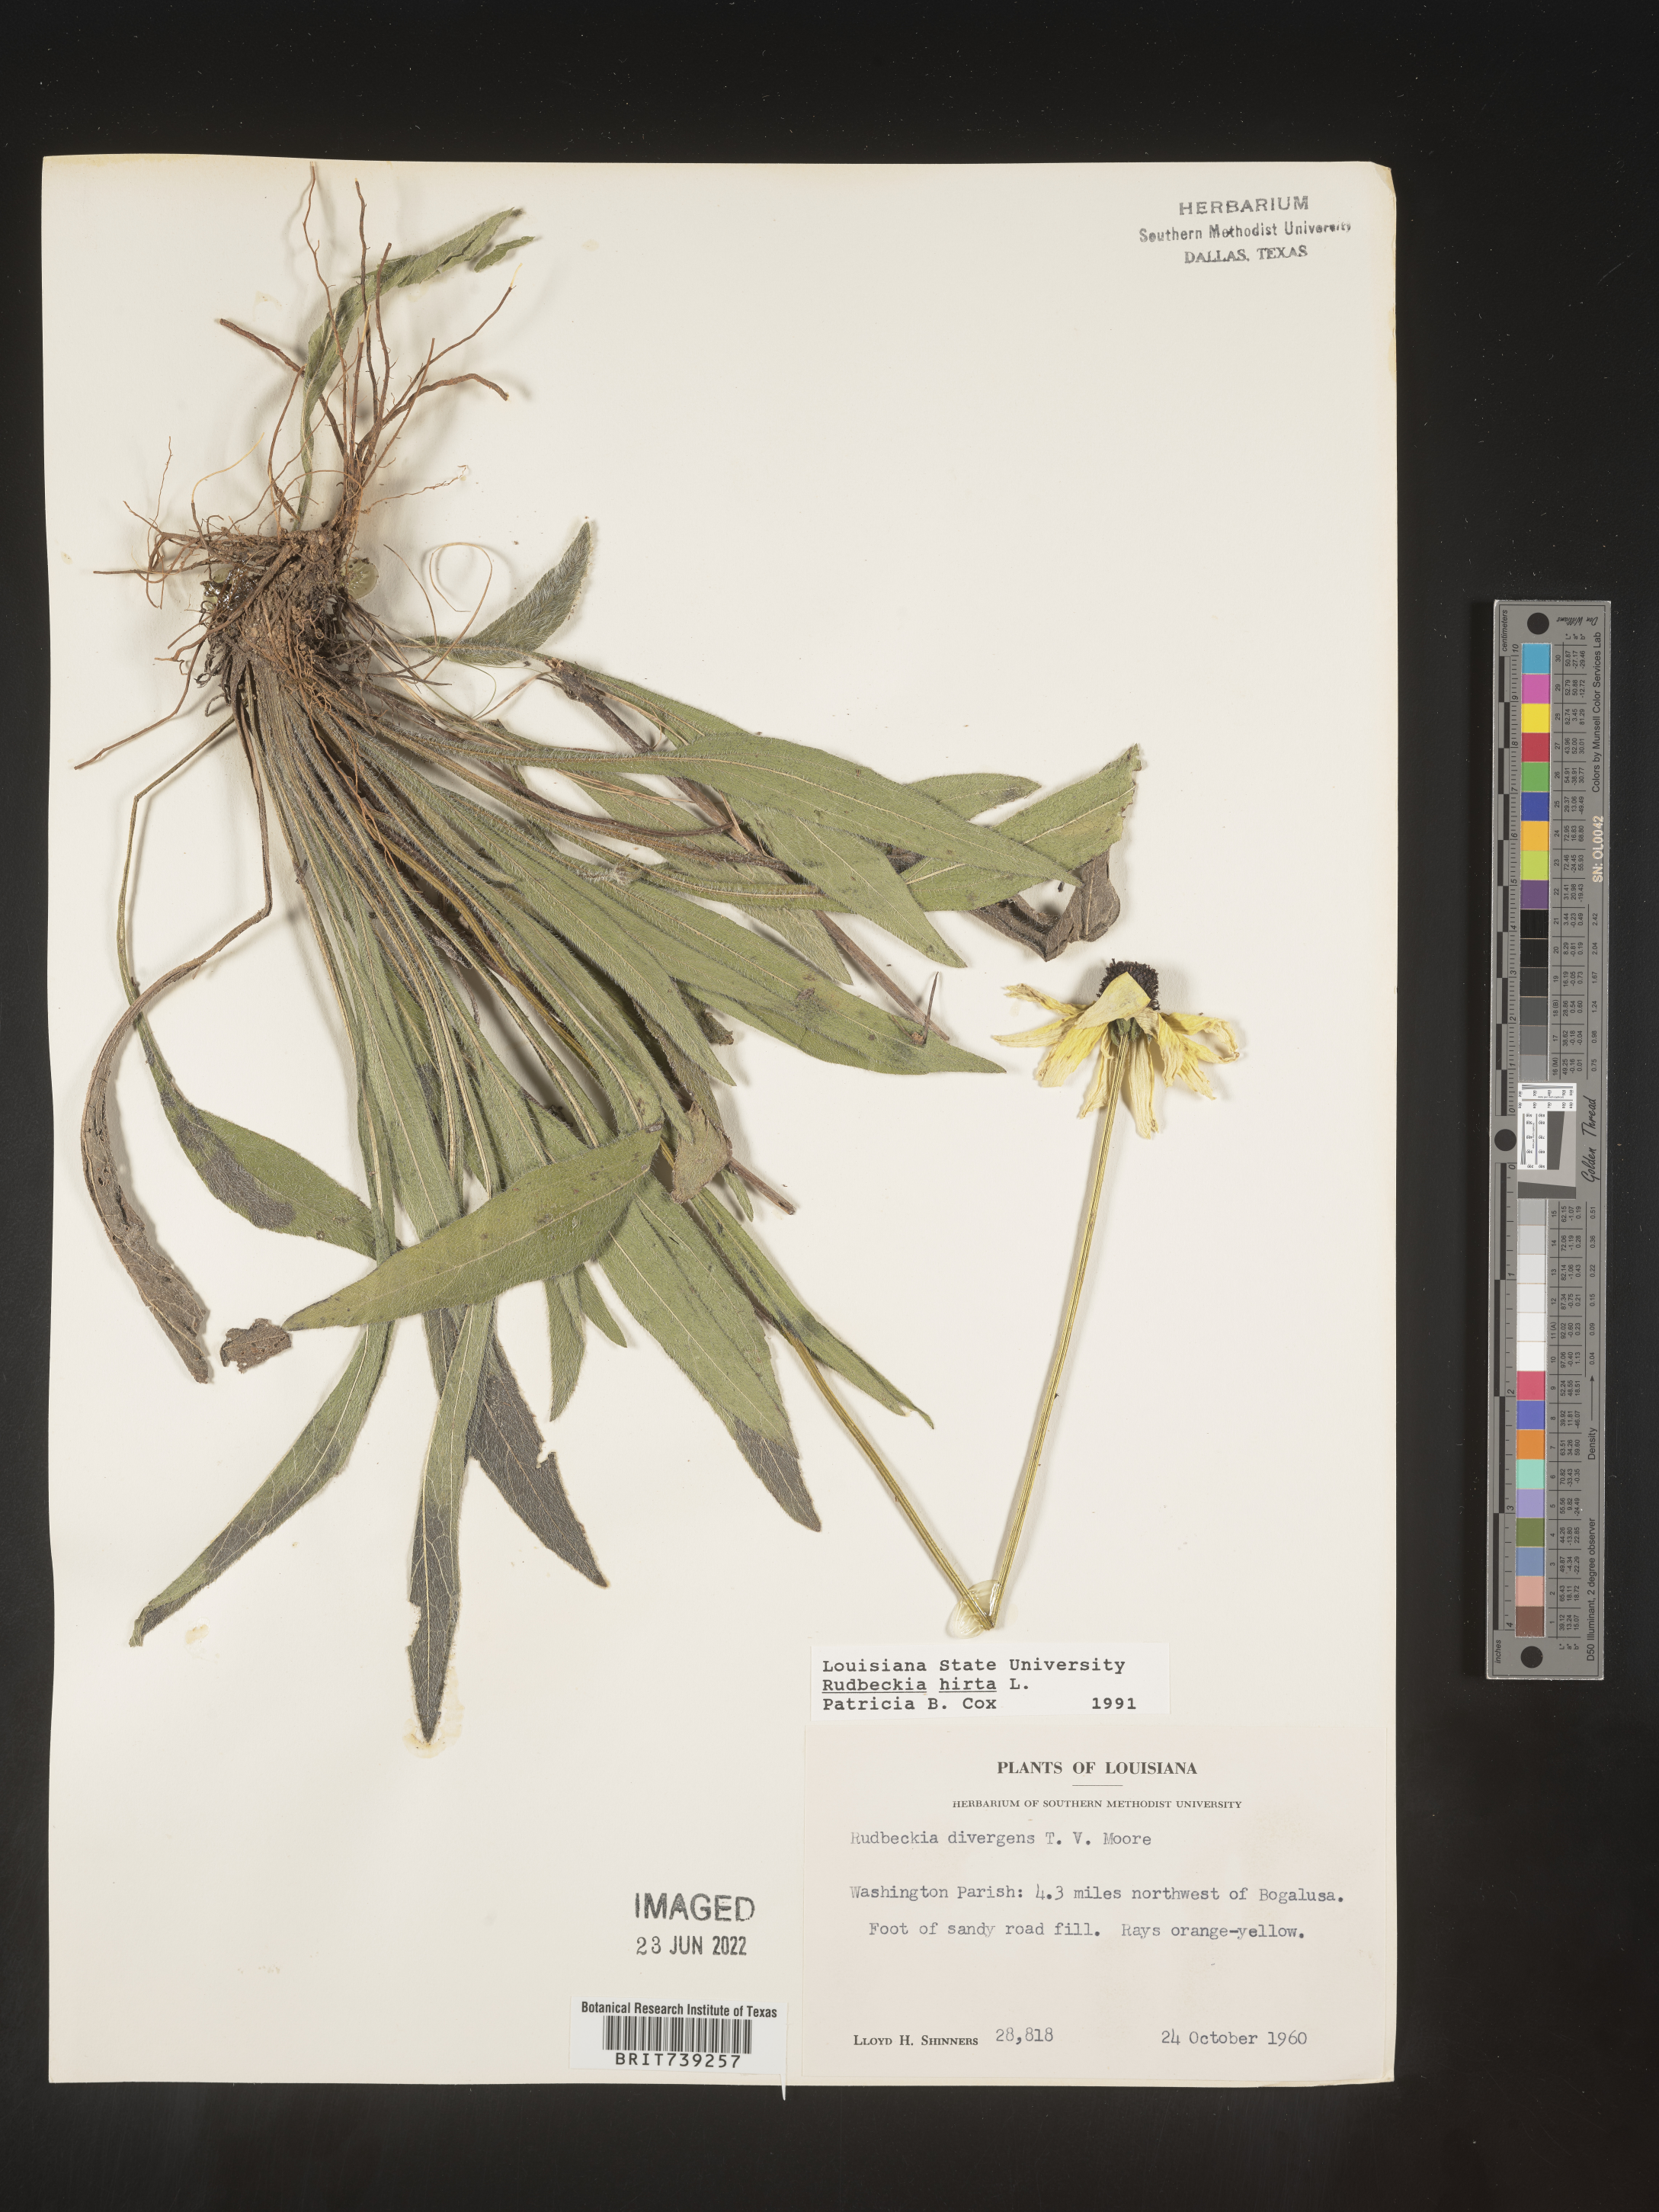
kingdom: Plantae
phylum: Tracheophyta
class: Magnoliopsida
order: Asterales
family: Asteraceae
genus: Rudbeckia
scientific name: Rudbeckia hirta
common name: Black-eyed-susan
